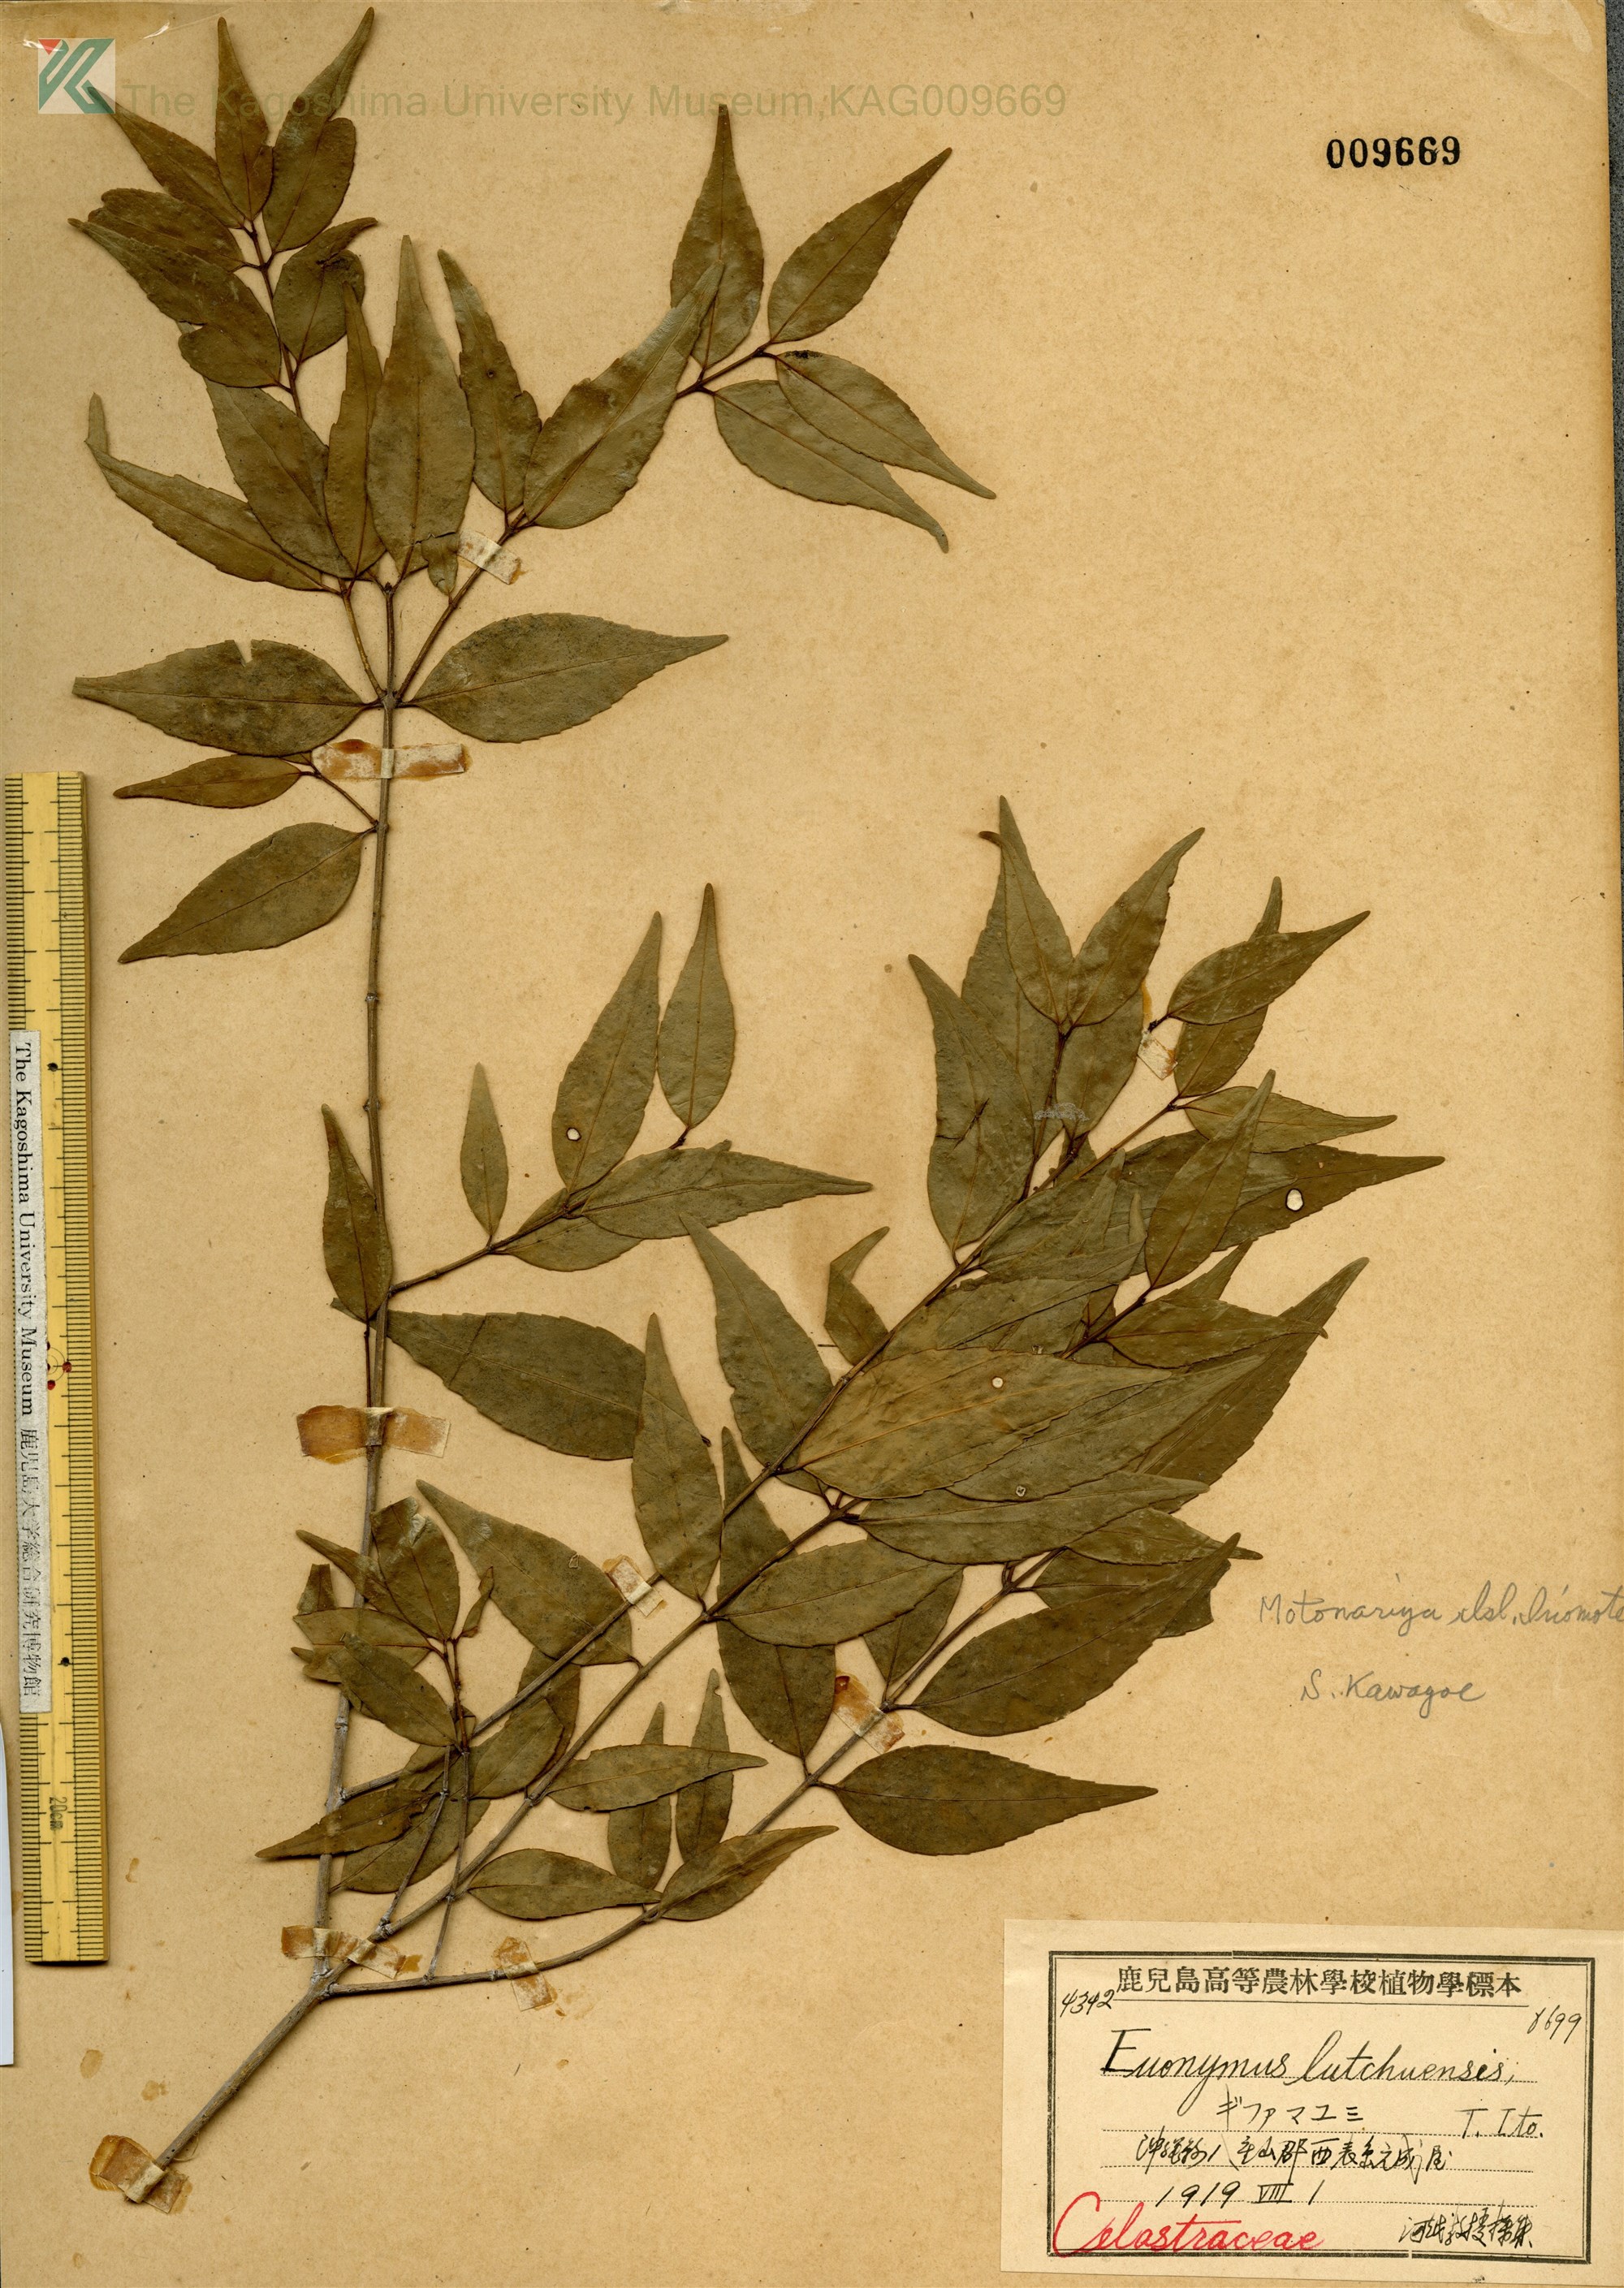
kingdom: Plantae
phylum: Tracheophyta
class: Magnoliopsida
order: Celastrales
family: Celastraceae
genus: Euonymus
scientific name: Euonymus lutchuensis
